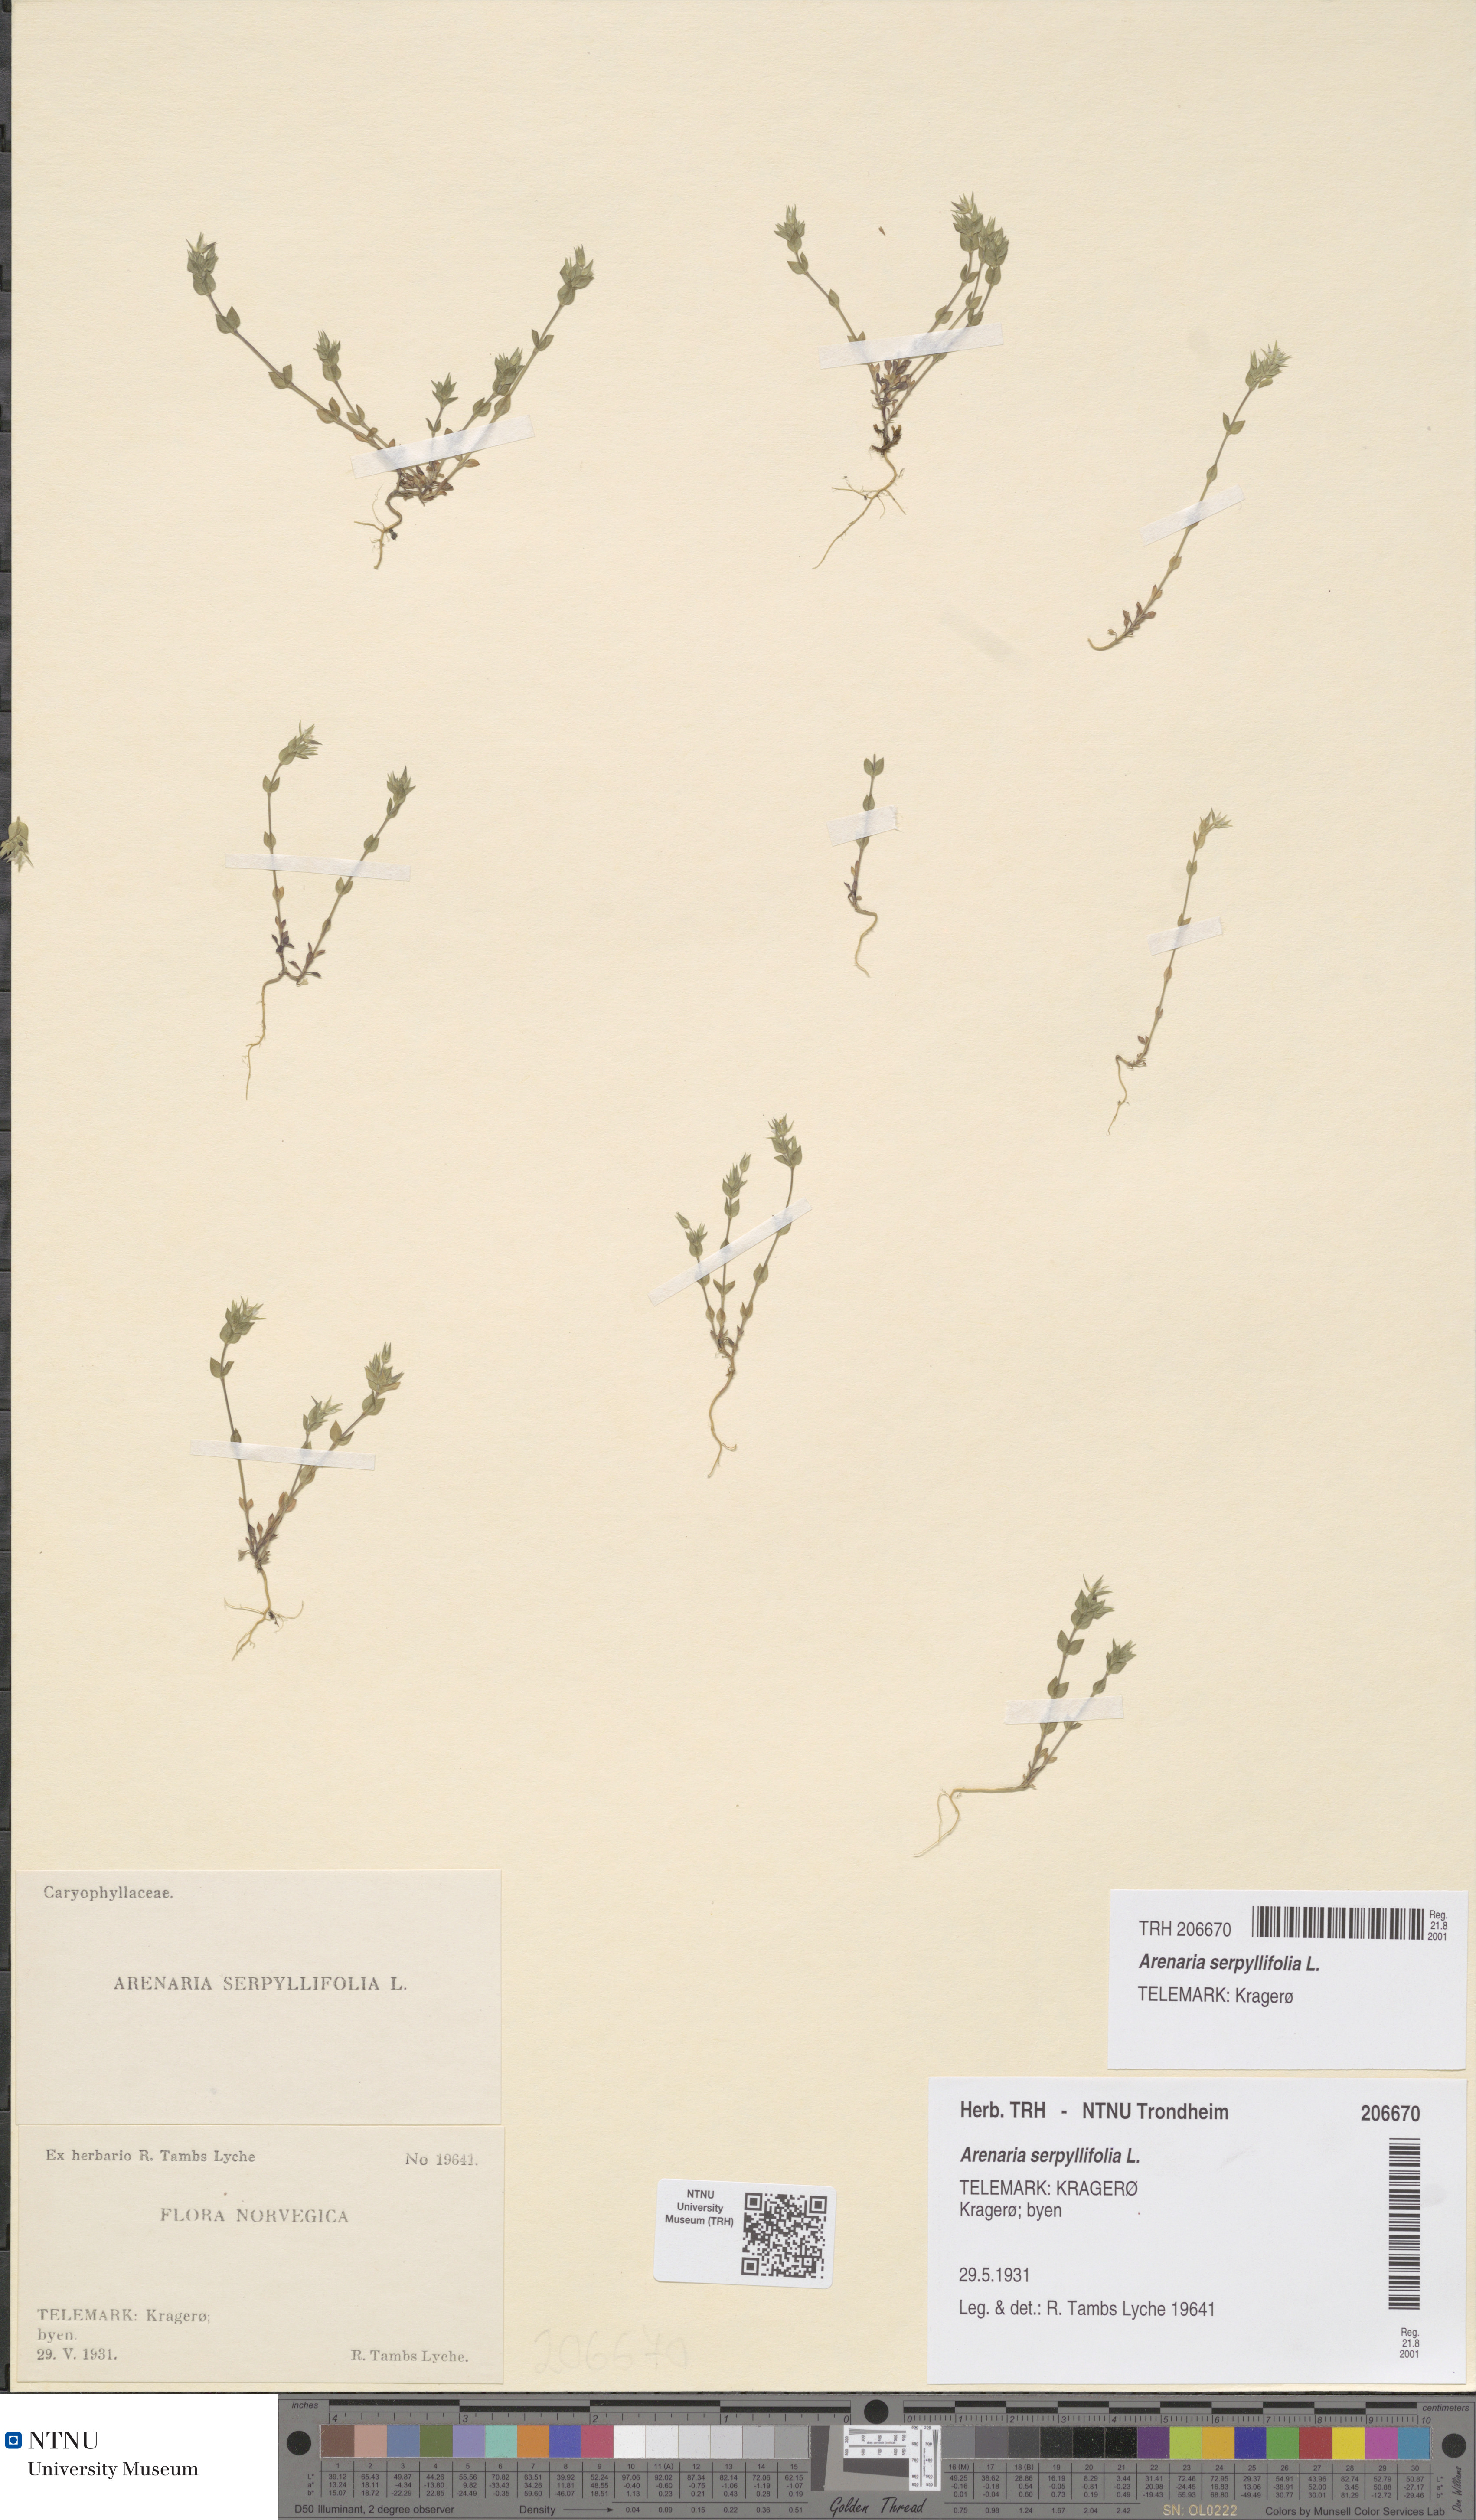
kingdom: Plantae
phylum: Tracheophyta
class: Magnoliopsida
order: Caryophyllales
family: Caryophyllaceae
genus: Arenaria
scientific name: Arenaria serpyllifolia
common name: Thyme-leaved sandwort
